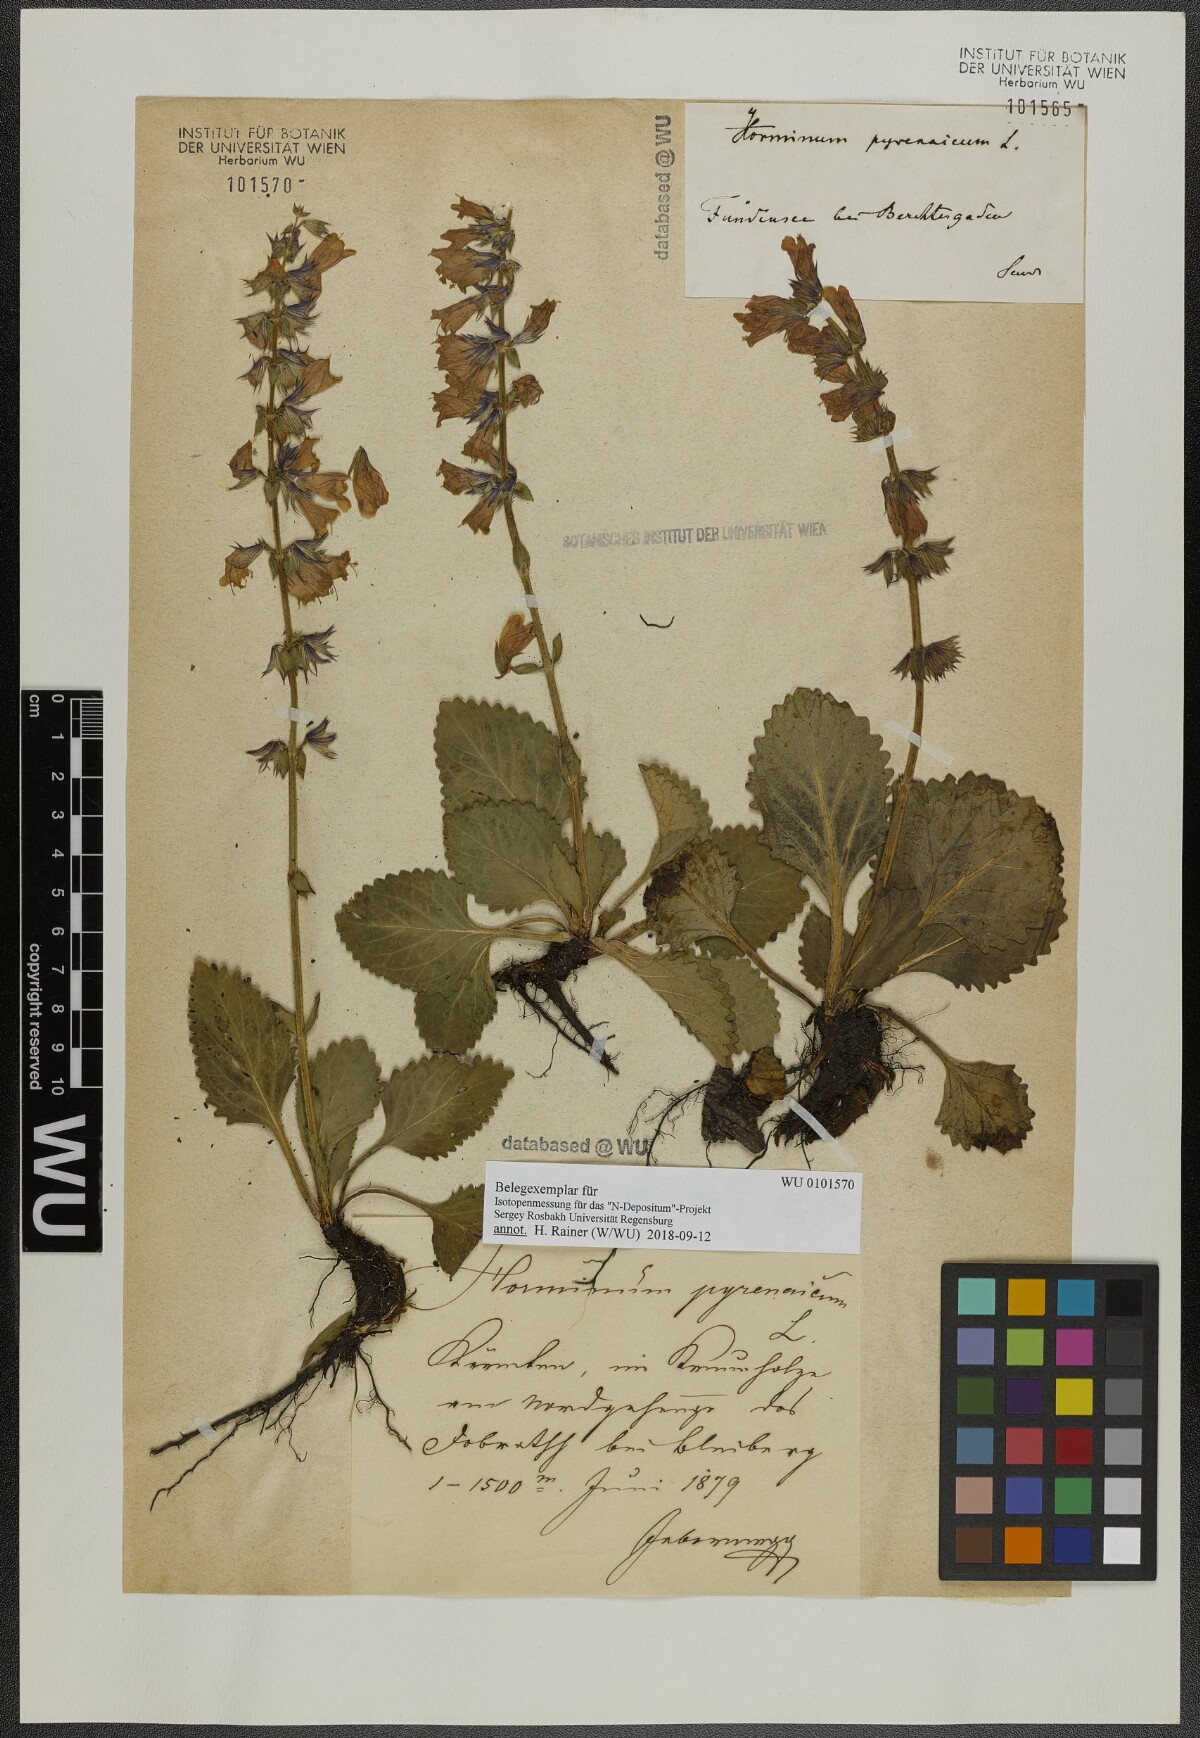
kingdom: Plantae
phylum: Tracheophyta
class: Magnoliopsida
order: Lamiales
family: Lamiaceae
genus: Horminum
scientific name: Horminum pyrenaicum
